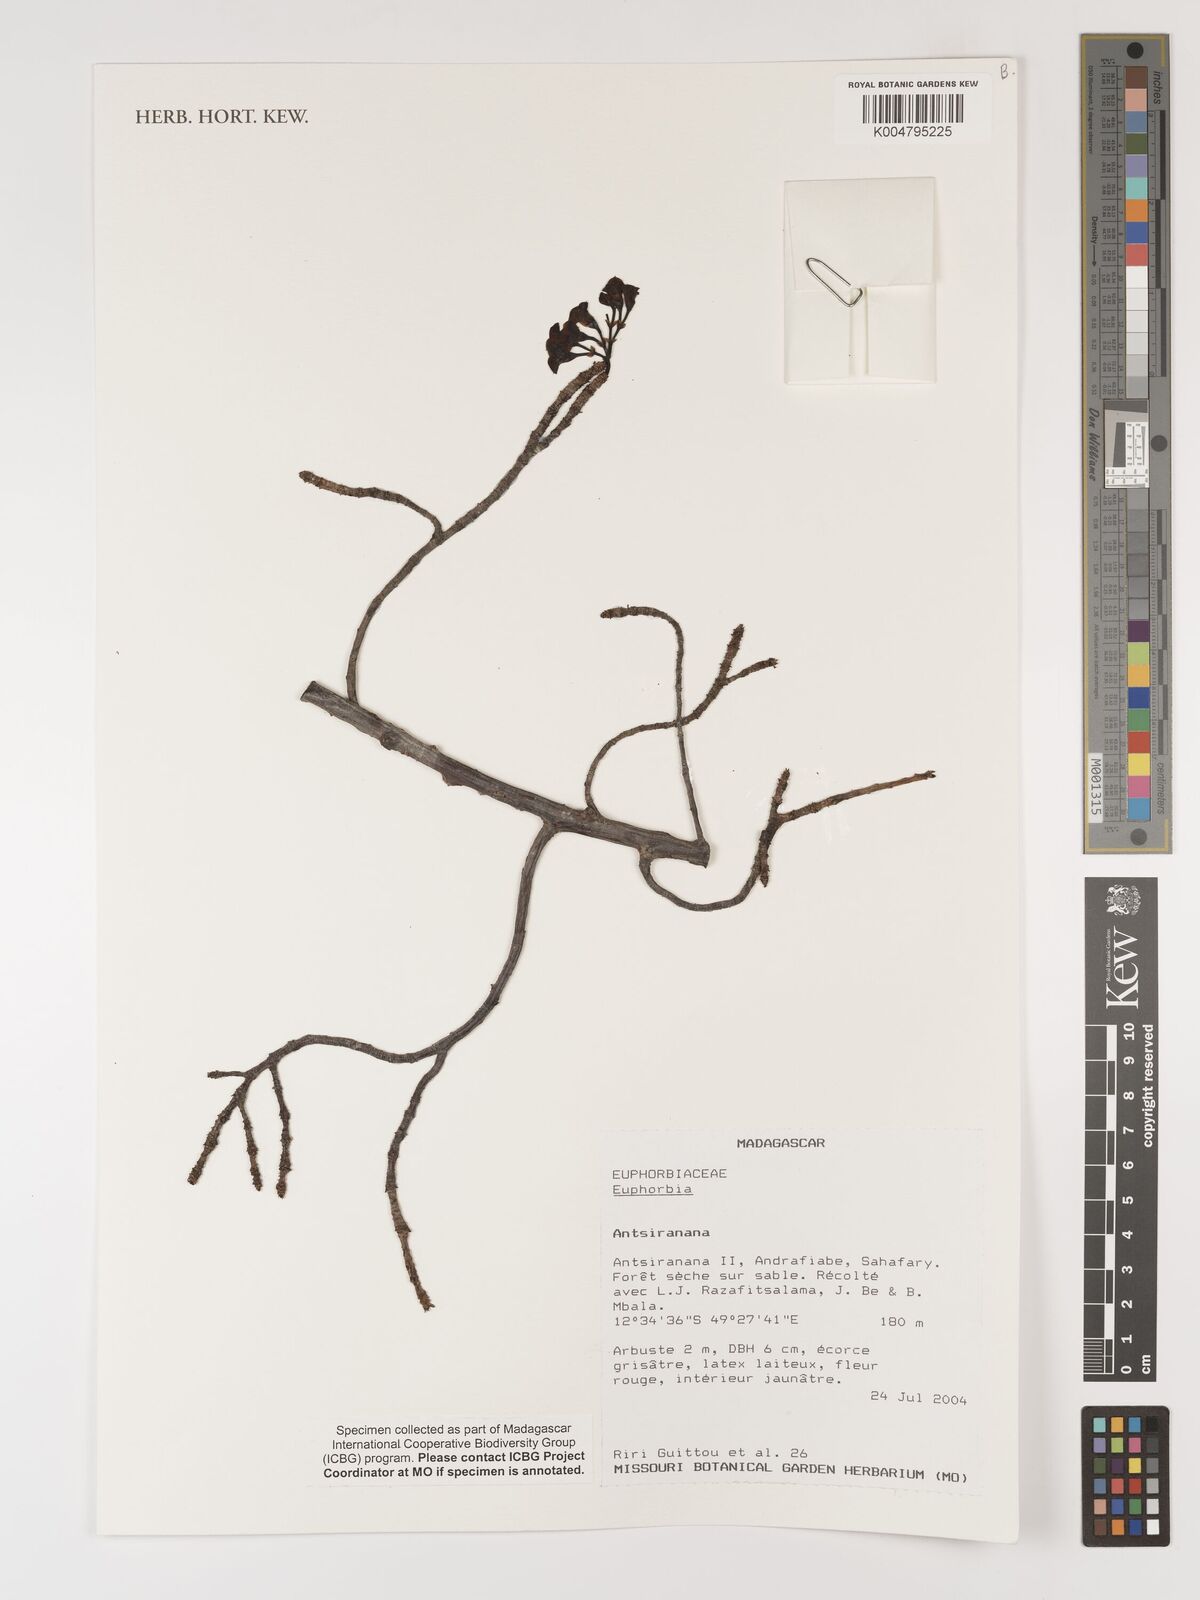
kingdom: Plantae
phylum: Tracheophyta
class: Magnoliopsida
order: Malpighiales
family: Euphorbiaceae
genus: Euphorbia
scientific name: Euphorbia
